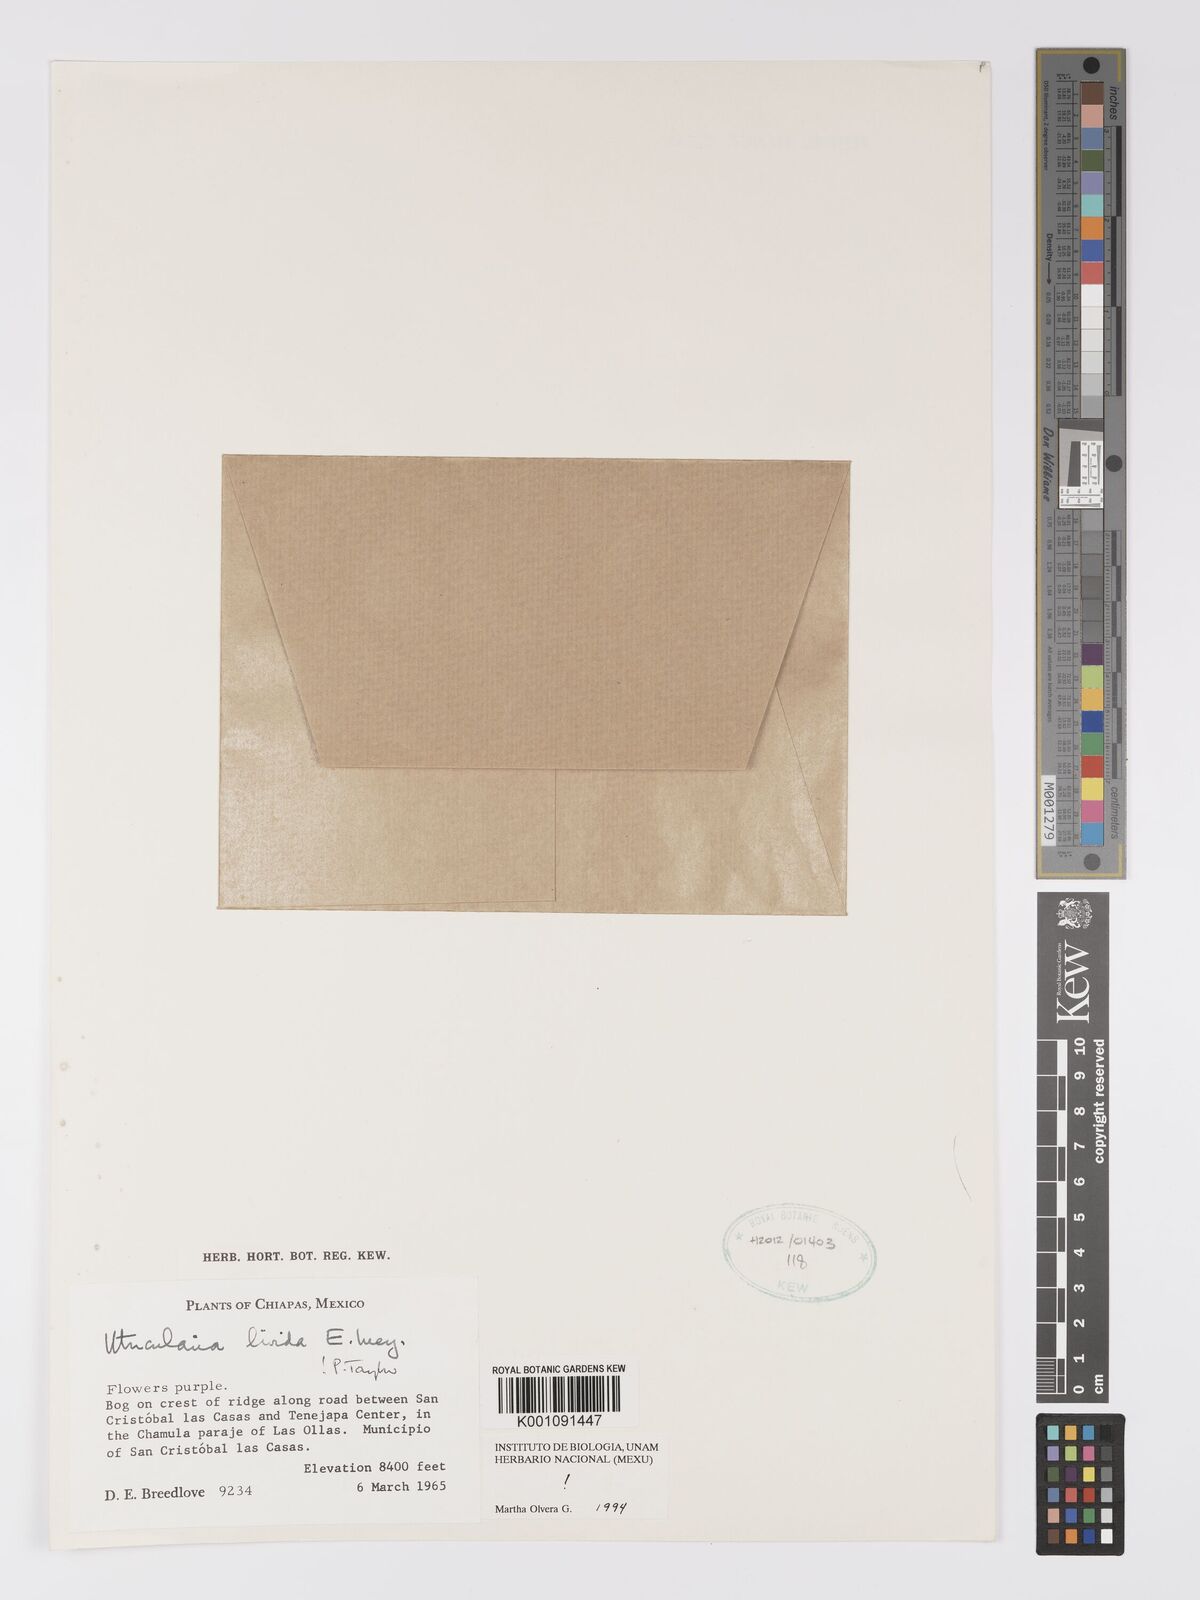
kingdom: Plantae
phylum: Tracheophyta
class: Magnoliopsida
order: Lamiales
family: Lentibulariaceae
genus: Utricularia
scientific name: Utricularia livida
